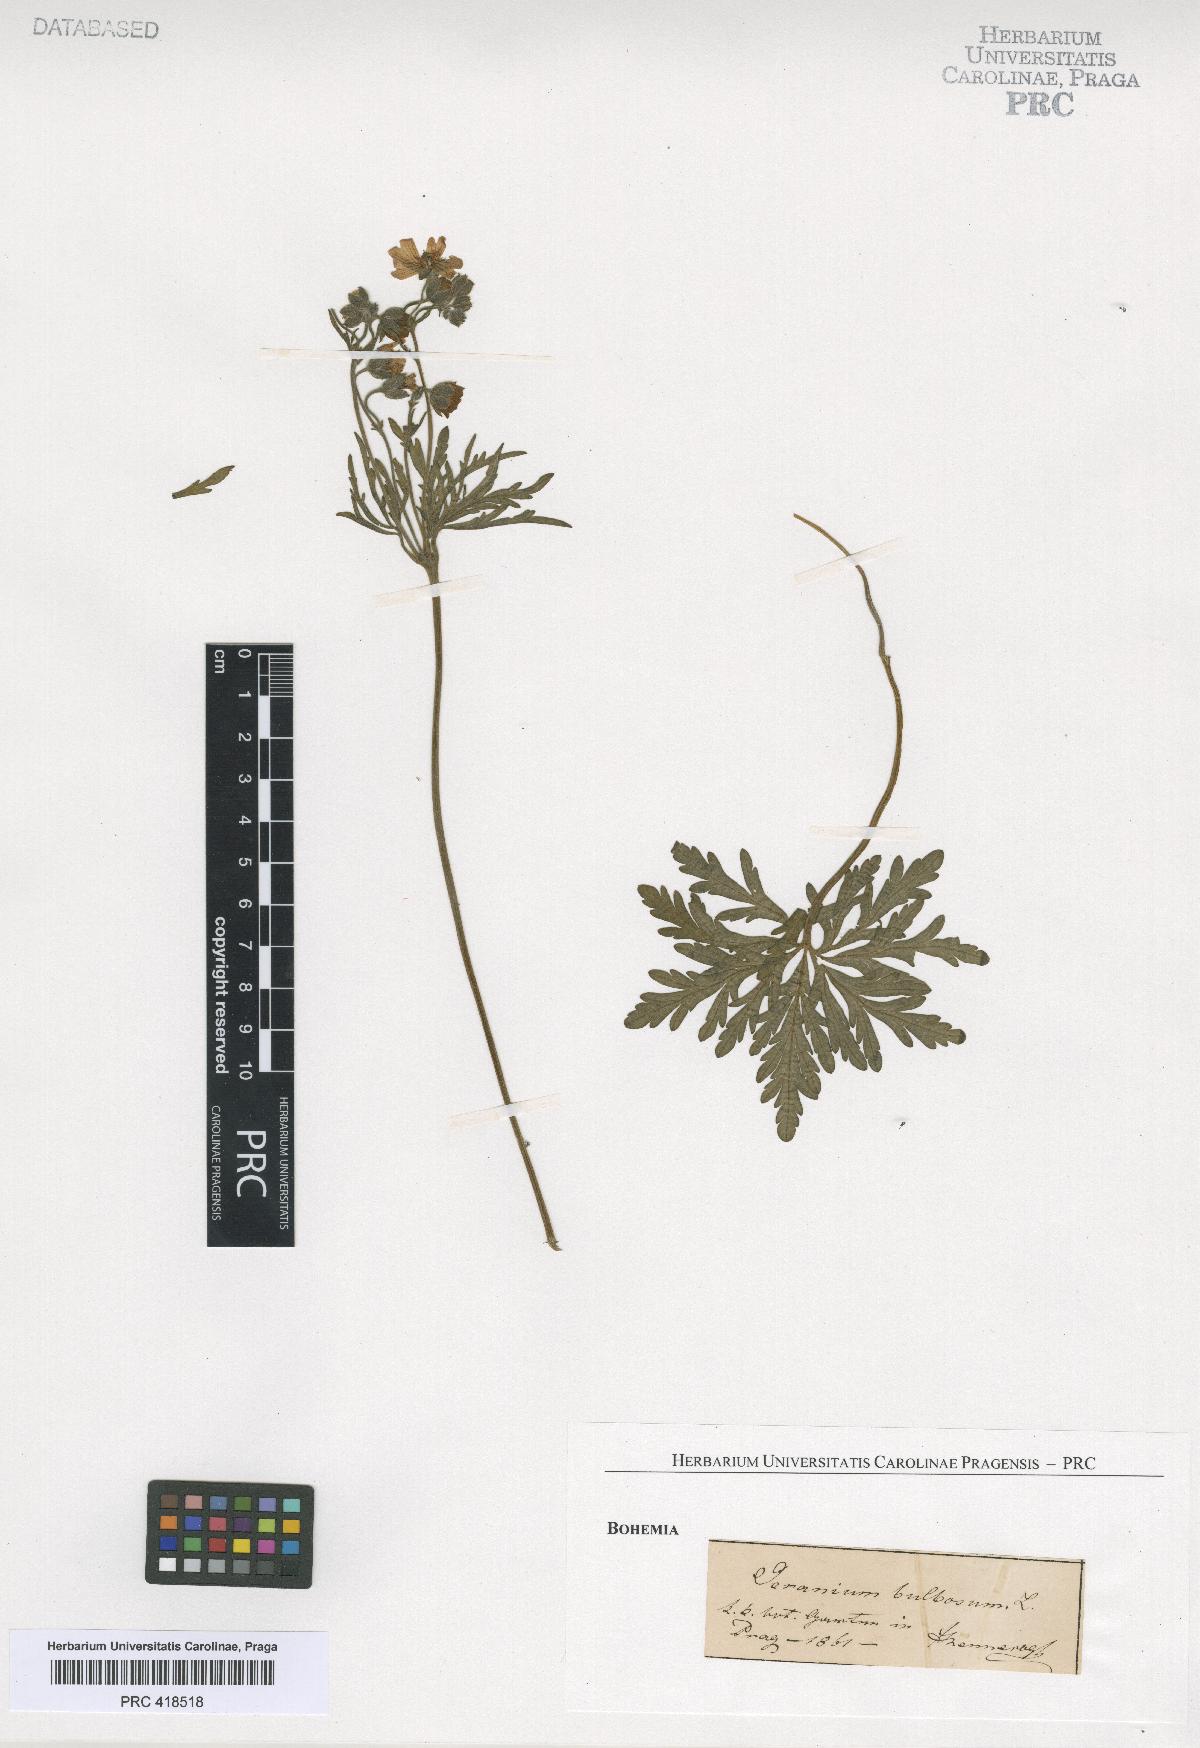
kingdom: Plantae
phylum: Tracheophyta
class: Magnoliopsida
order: Geraniales
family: Geraniaceae
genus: Geranium
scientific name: Geranium tuberosum
